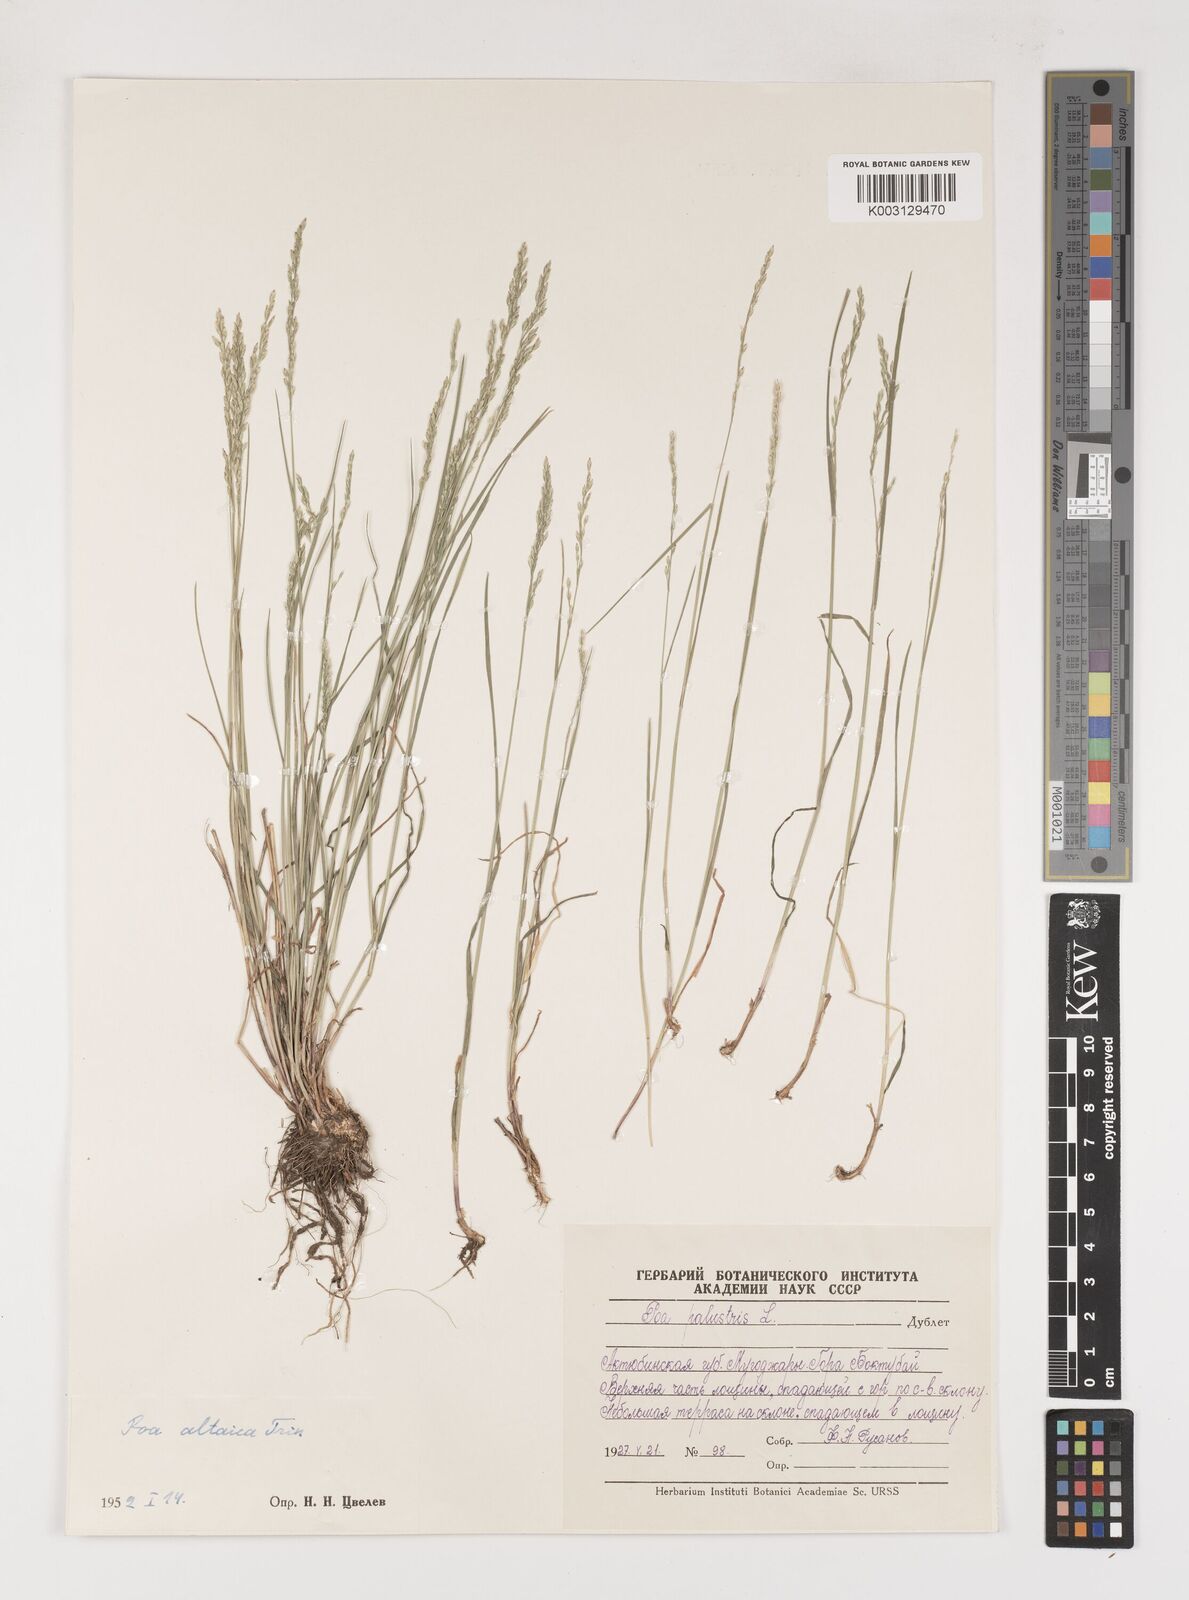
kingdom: Plantae
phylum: Tracheophyta
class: Liliopsida
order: Poales
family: Poaceae
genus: Poa
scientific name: Poa glauca
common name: Glaucous bluegrass
